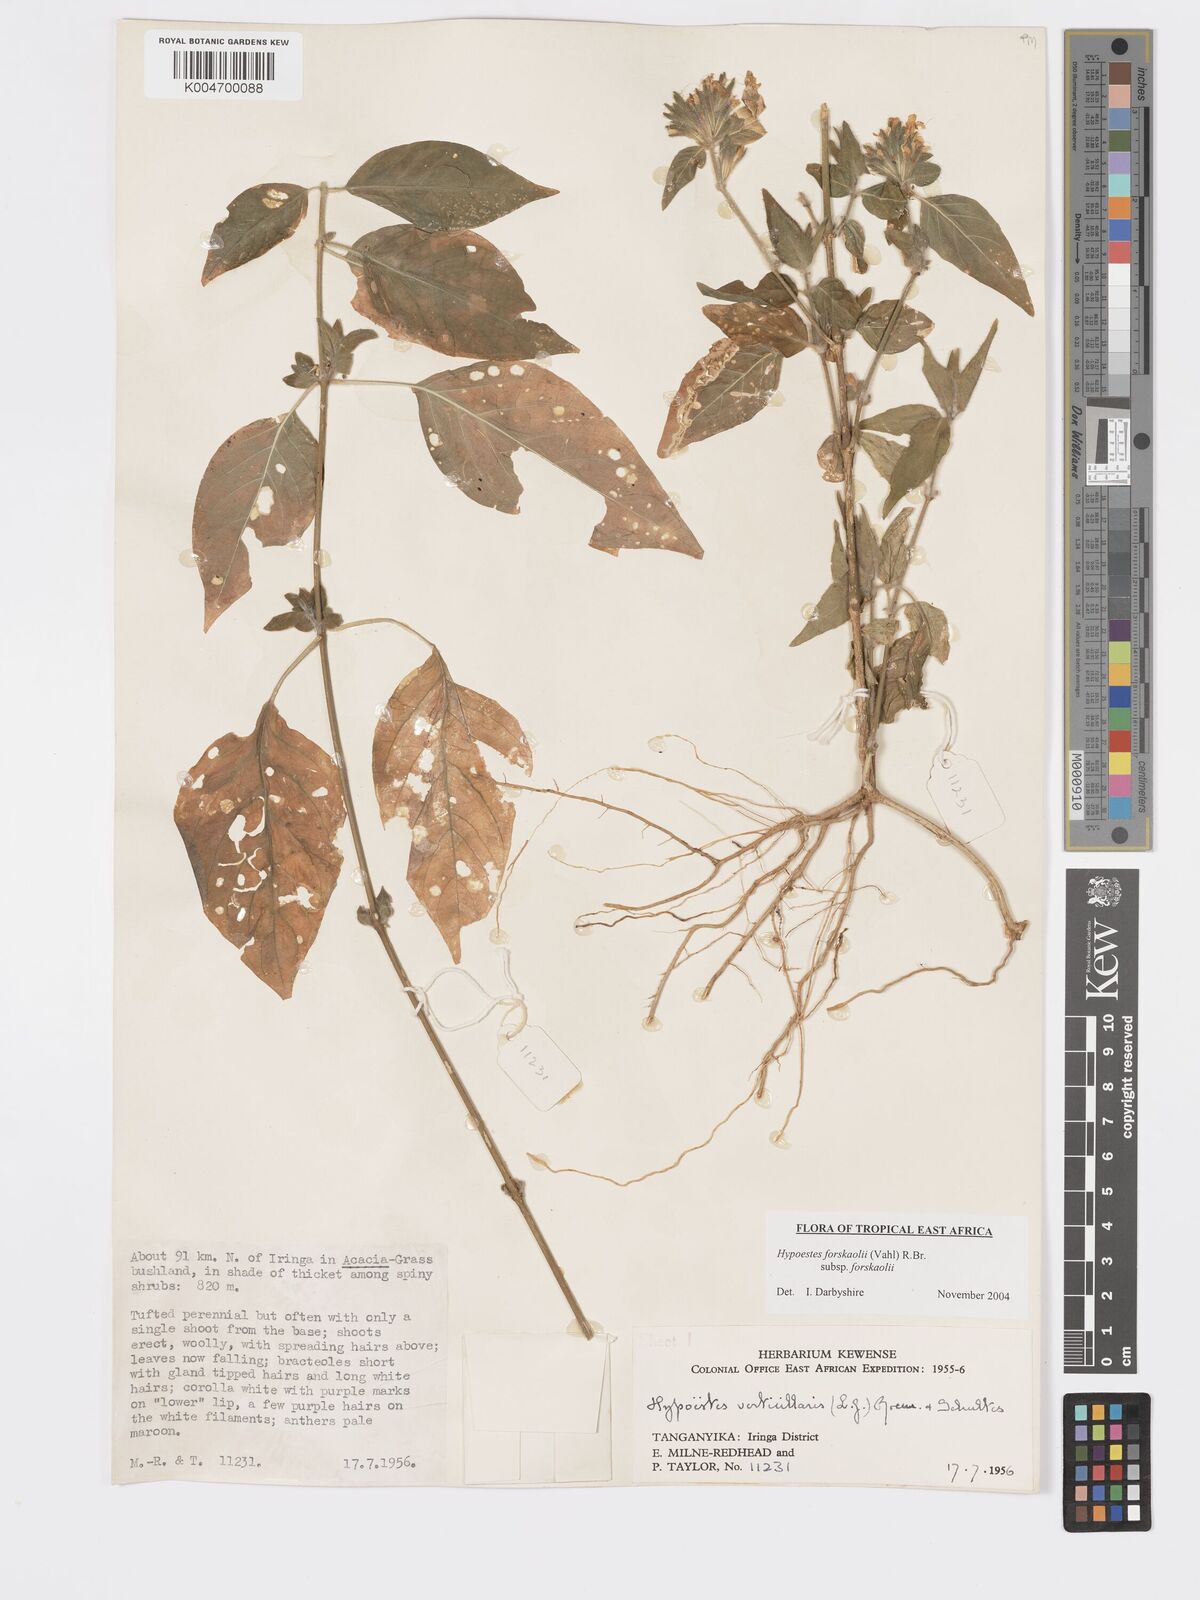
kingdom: Plantae
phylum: Tracheophyta
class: Magnoliopsida
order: Lamiales
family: Acanthaceae
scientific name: Acanthaceae
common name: Acanthaceae
